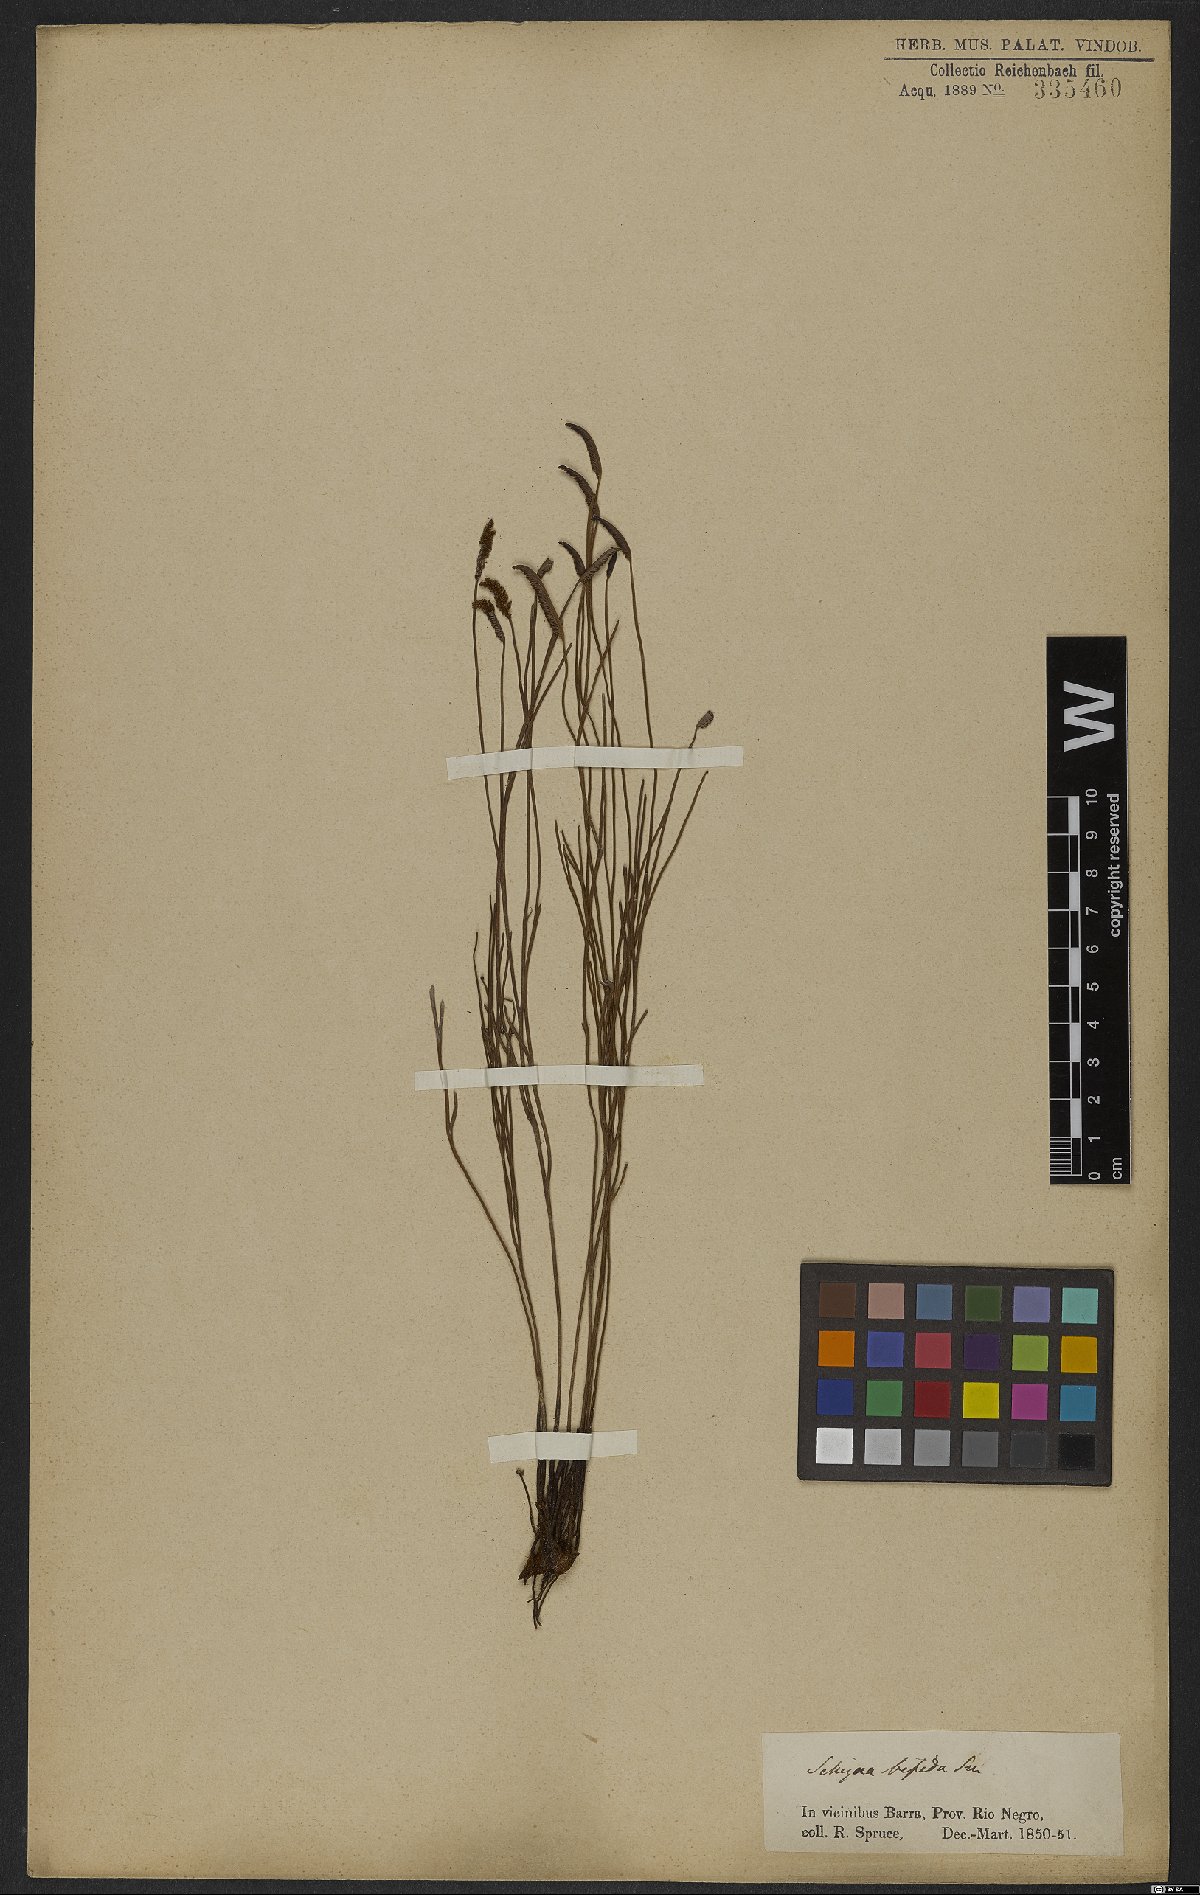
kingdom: Plantae
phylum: Tracheophyta
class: Polypodiopsida
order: Schizaeales
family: Schizaeaceae
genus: Schizaea
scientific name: Schizaea bifida
